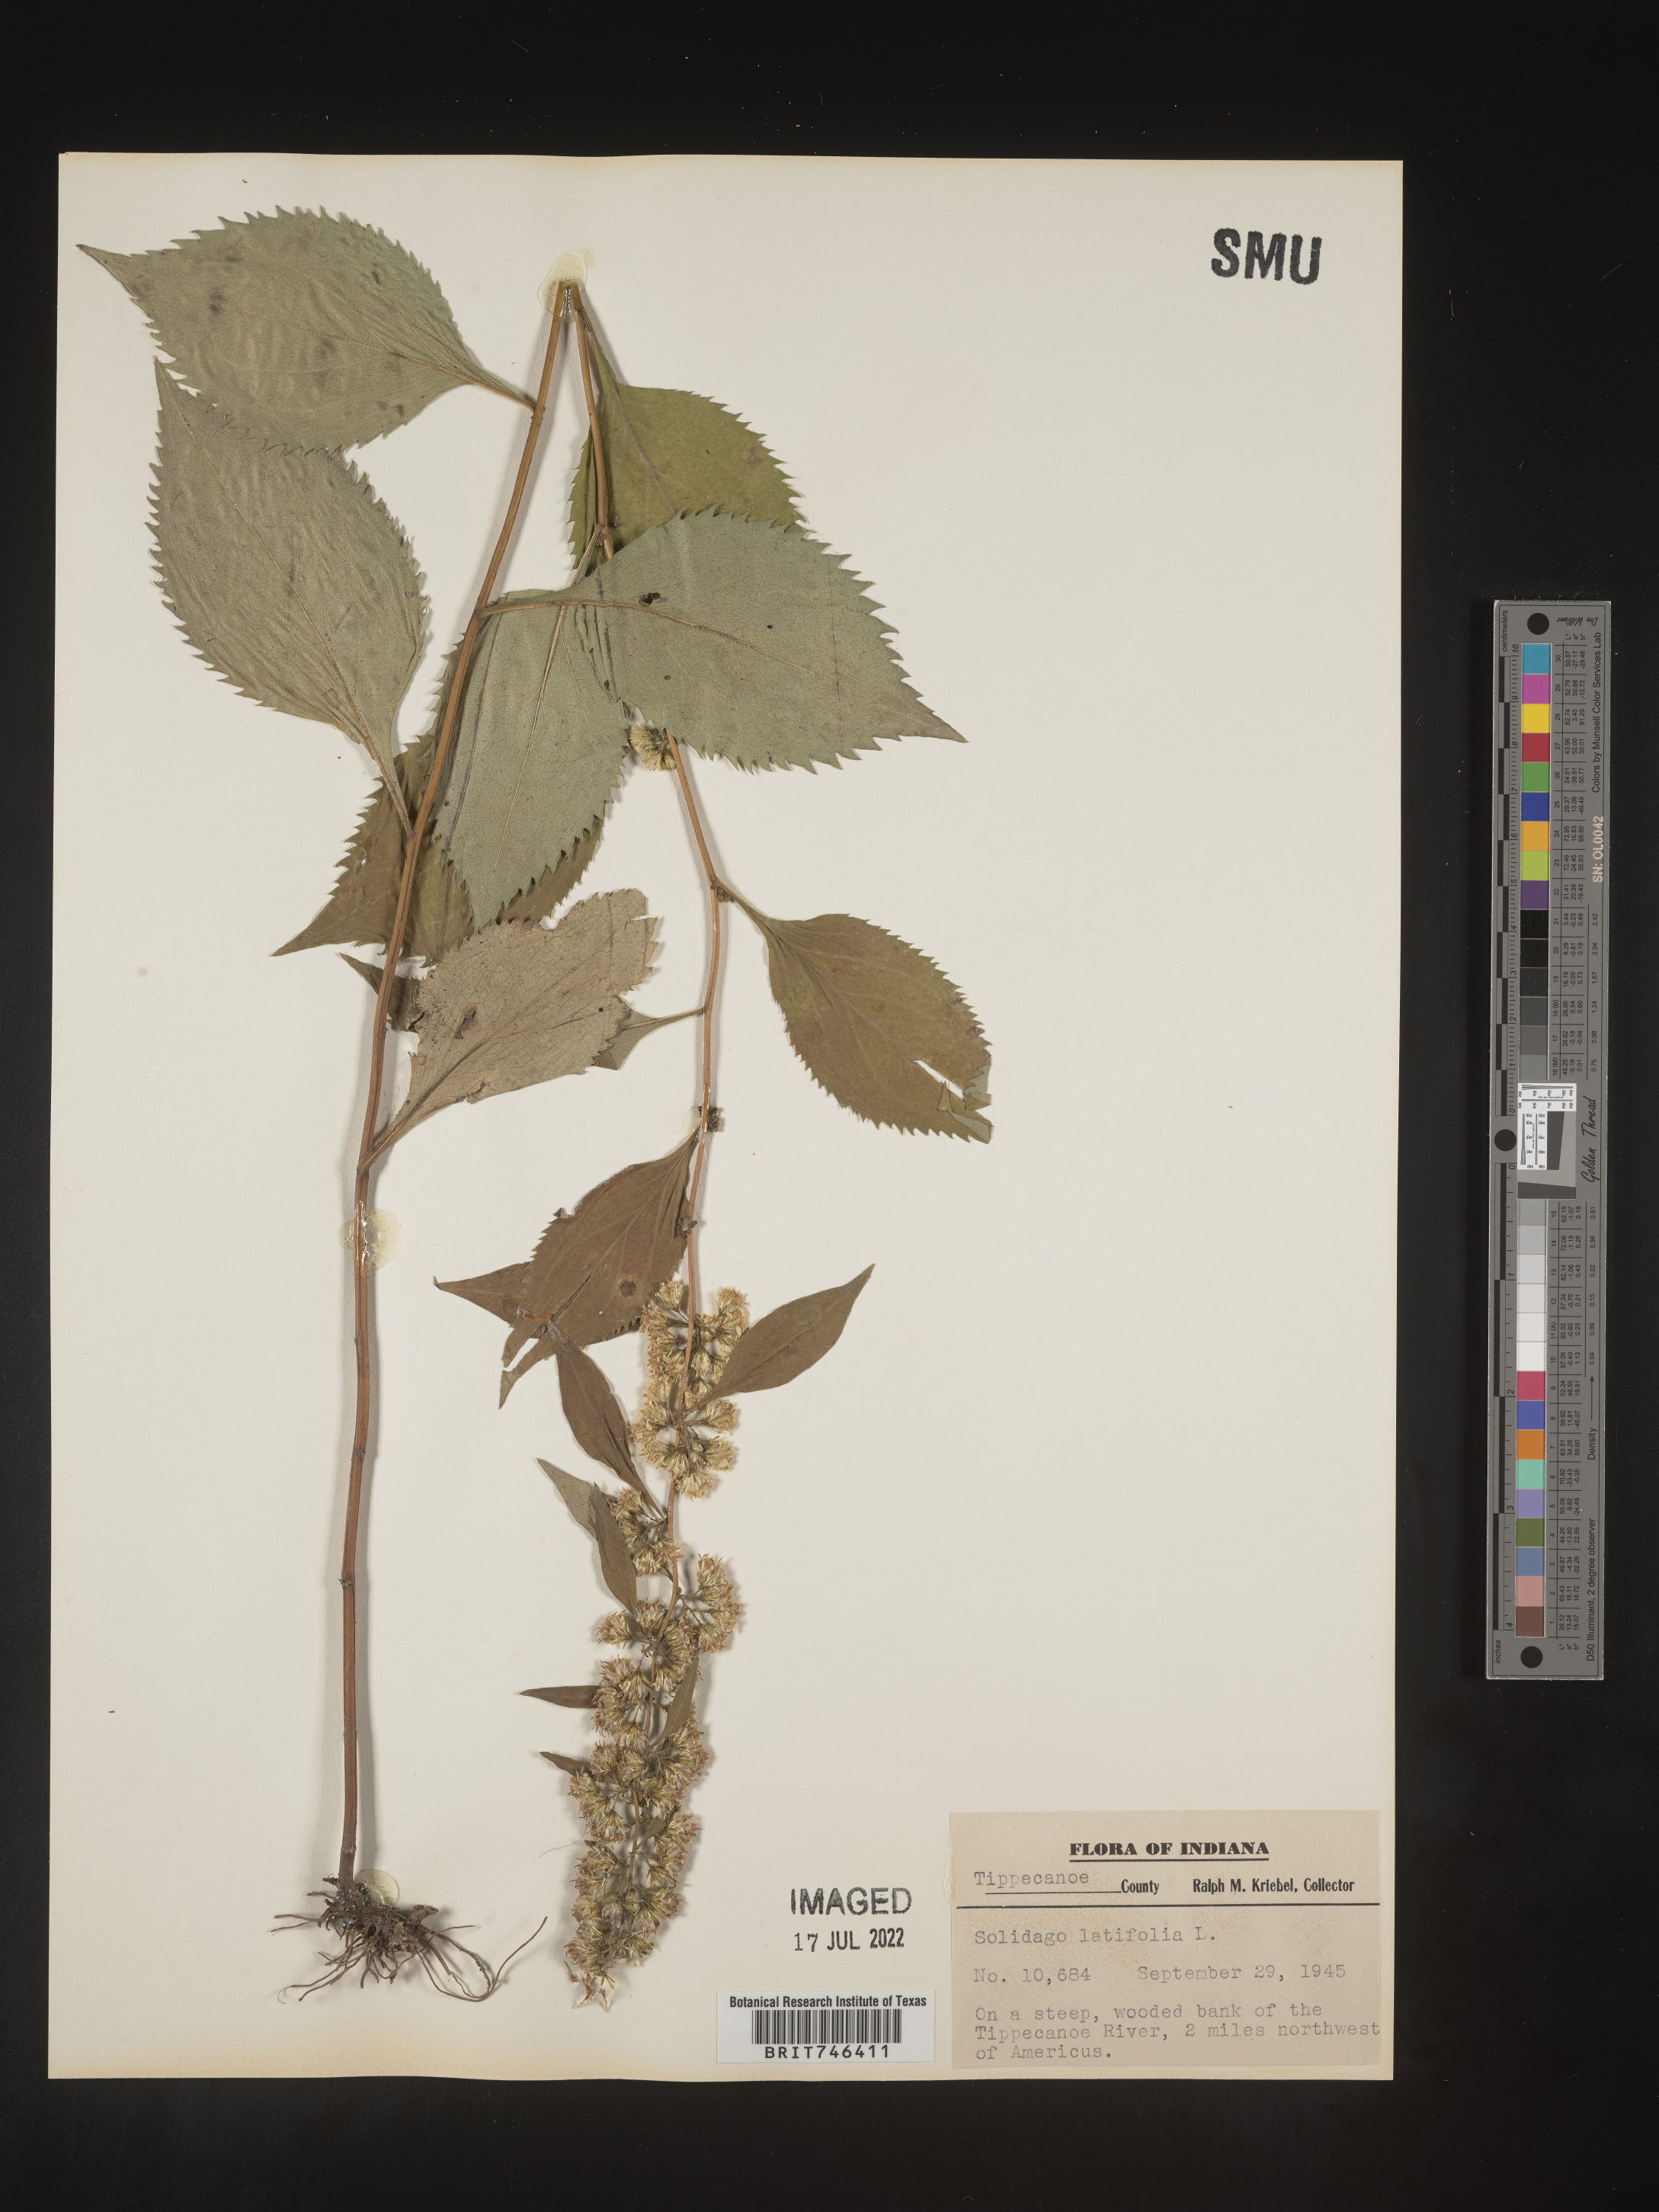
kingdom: Plantae
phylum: Tracheophyta
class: Magnoliopsida
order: Asterales
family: Asteraceae
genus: Solidago
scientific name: Solidago flexicaulis
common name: Zig-zag goldenrod
